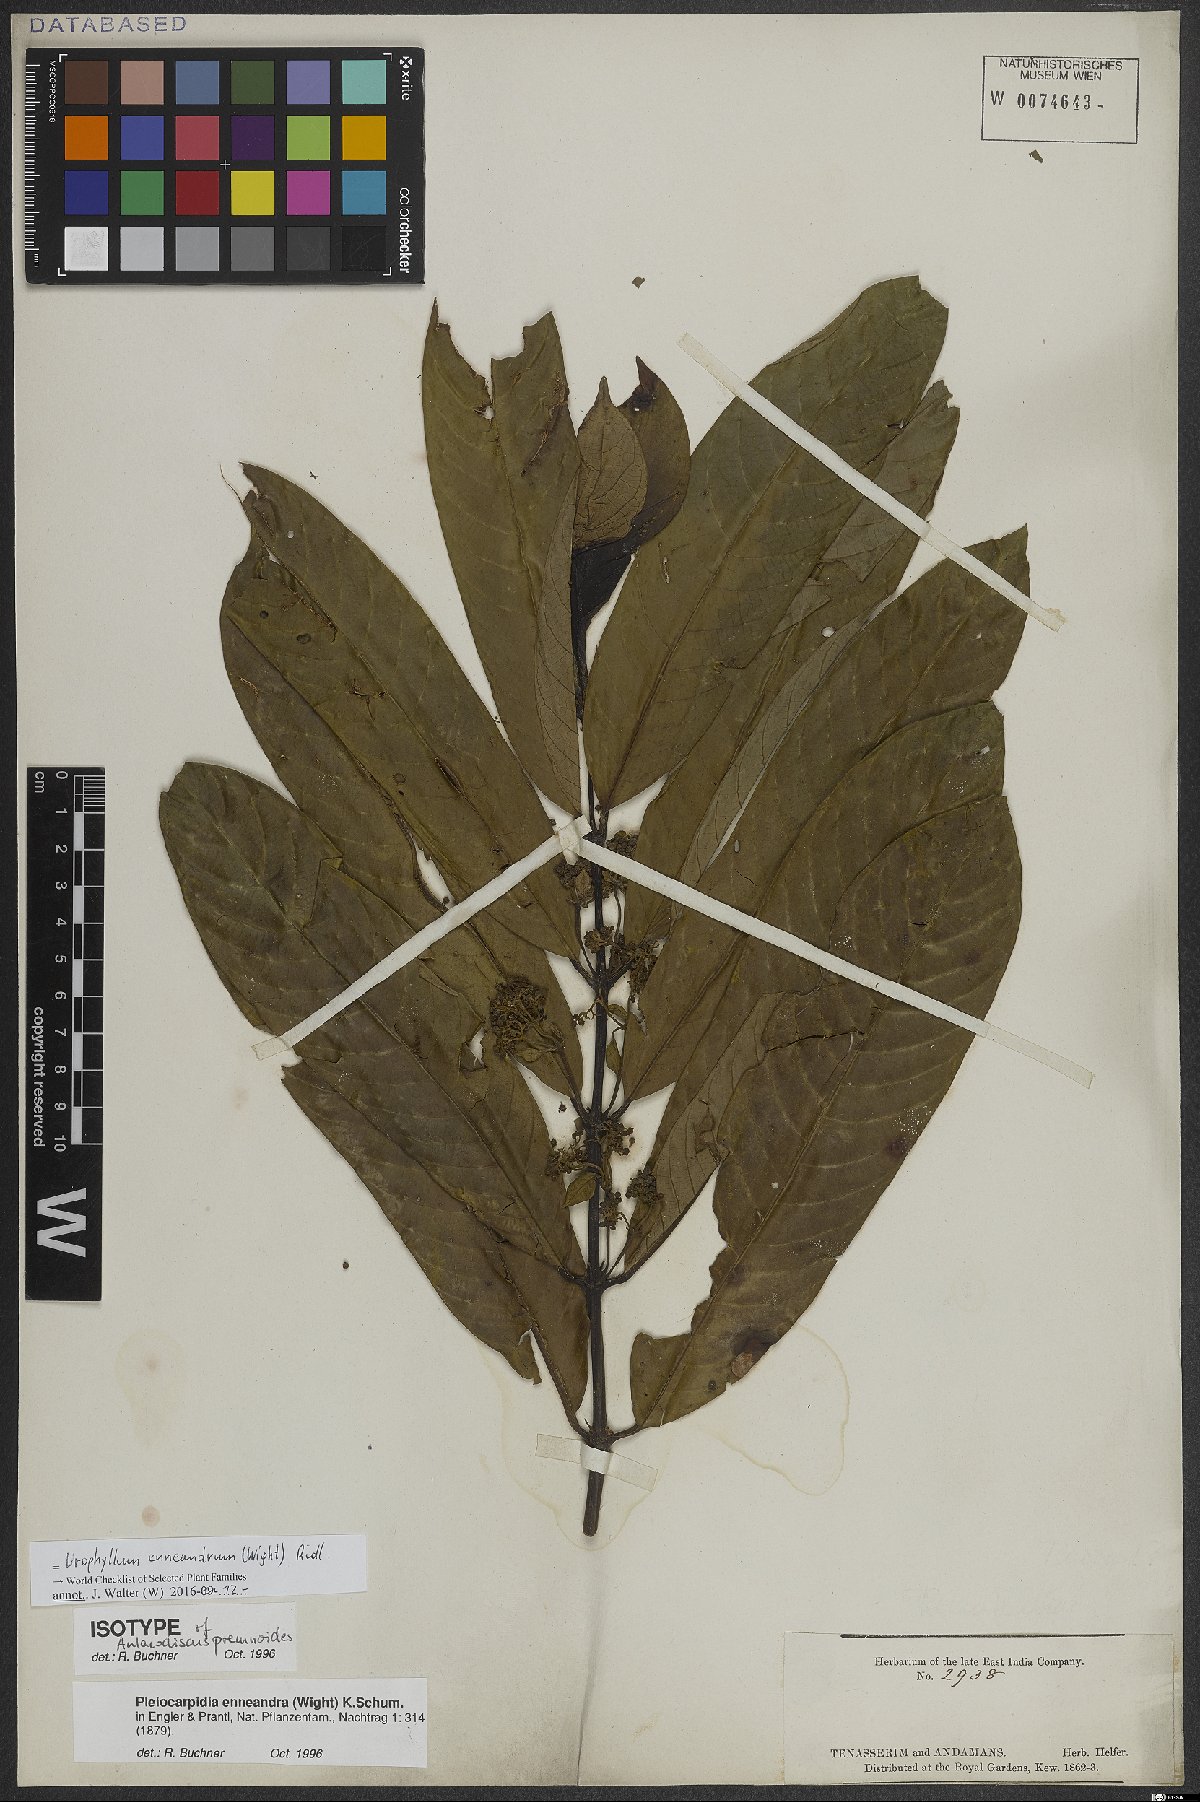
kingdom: Plantae
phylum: Tracheophyta
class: Magnoliopsida
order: Gentianales
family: Rubiaceae
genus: Urophyllum
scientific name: Urophyllum enneandrum
